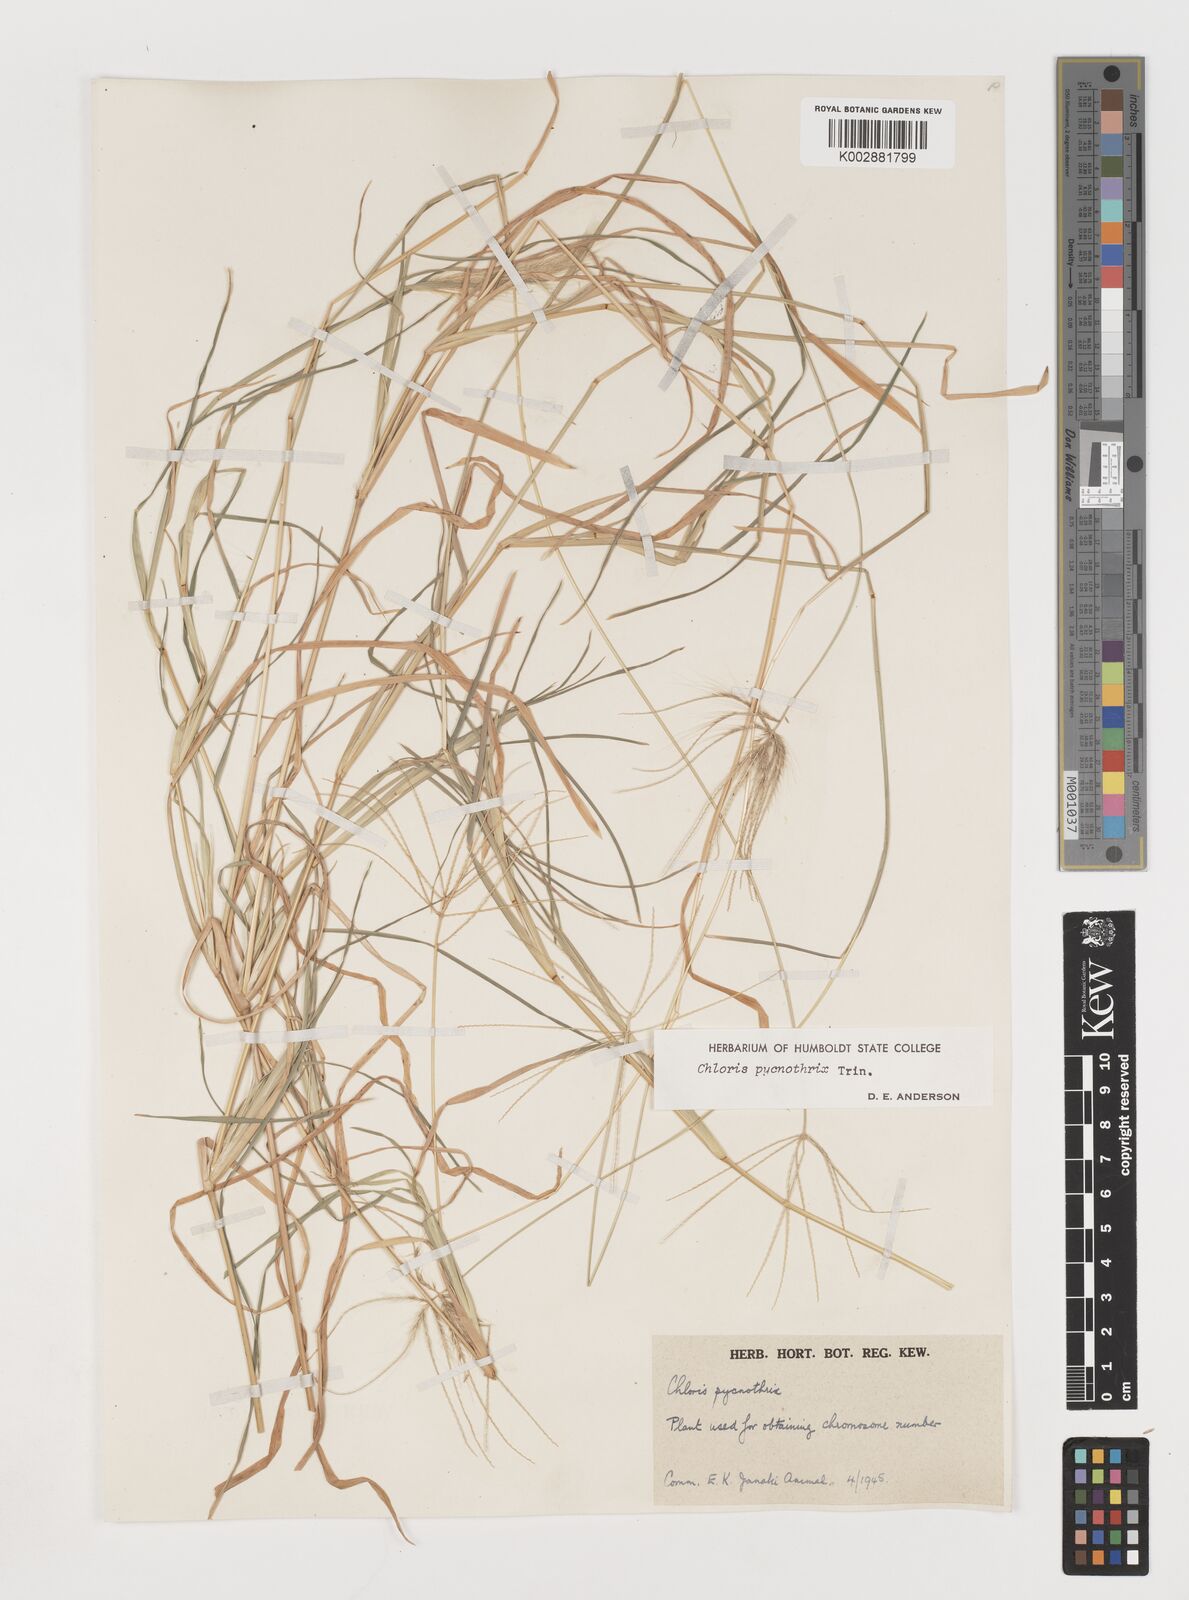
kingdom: Plantae
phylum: Tracheophyta
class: Liliopsida
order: Poales
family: Poaceae
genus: Chloris
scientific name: Chloris pycnothrix
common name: Spiderweb chloris
